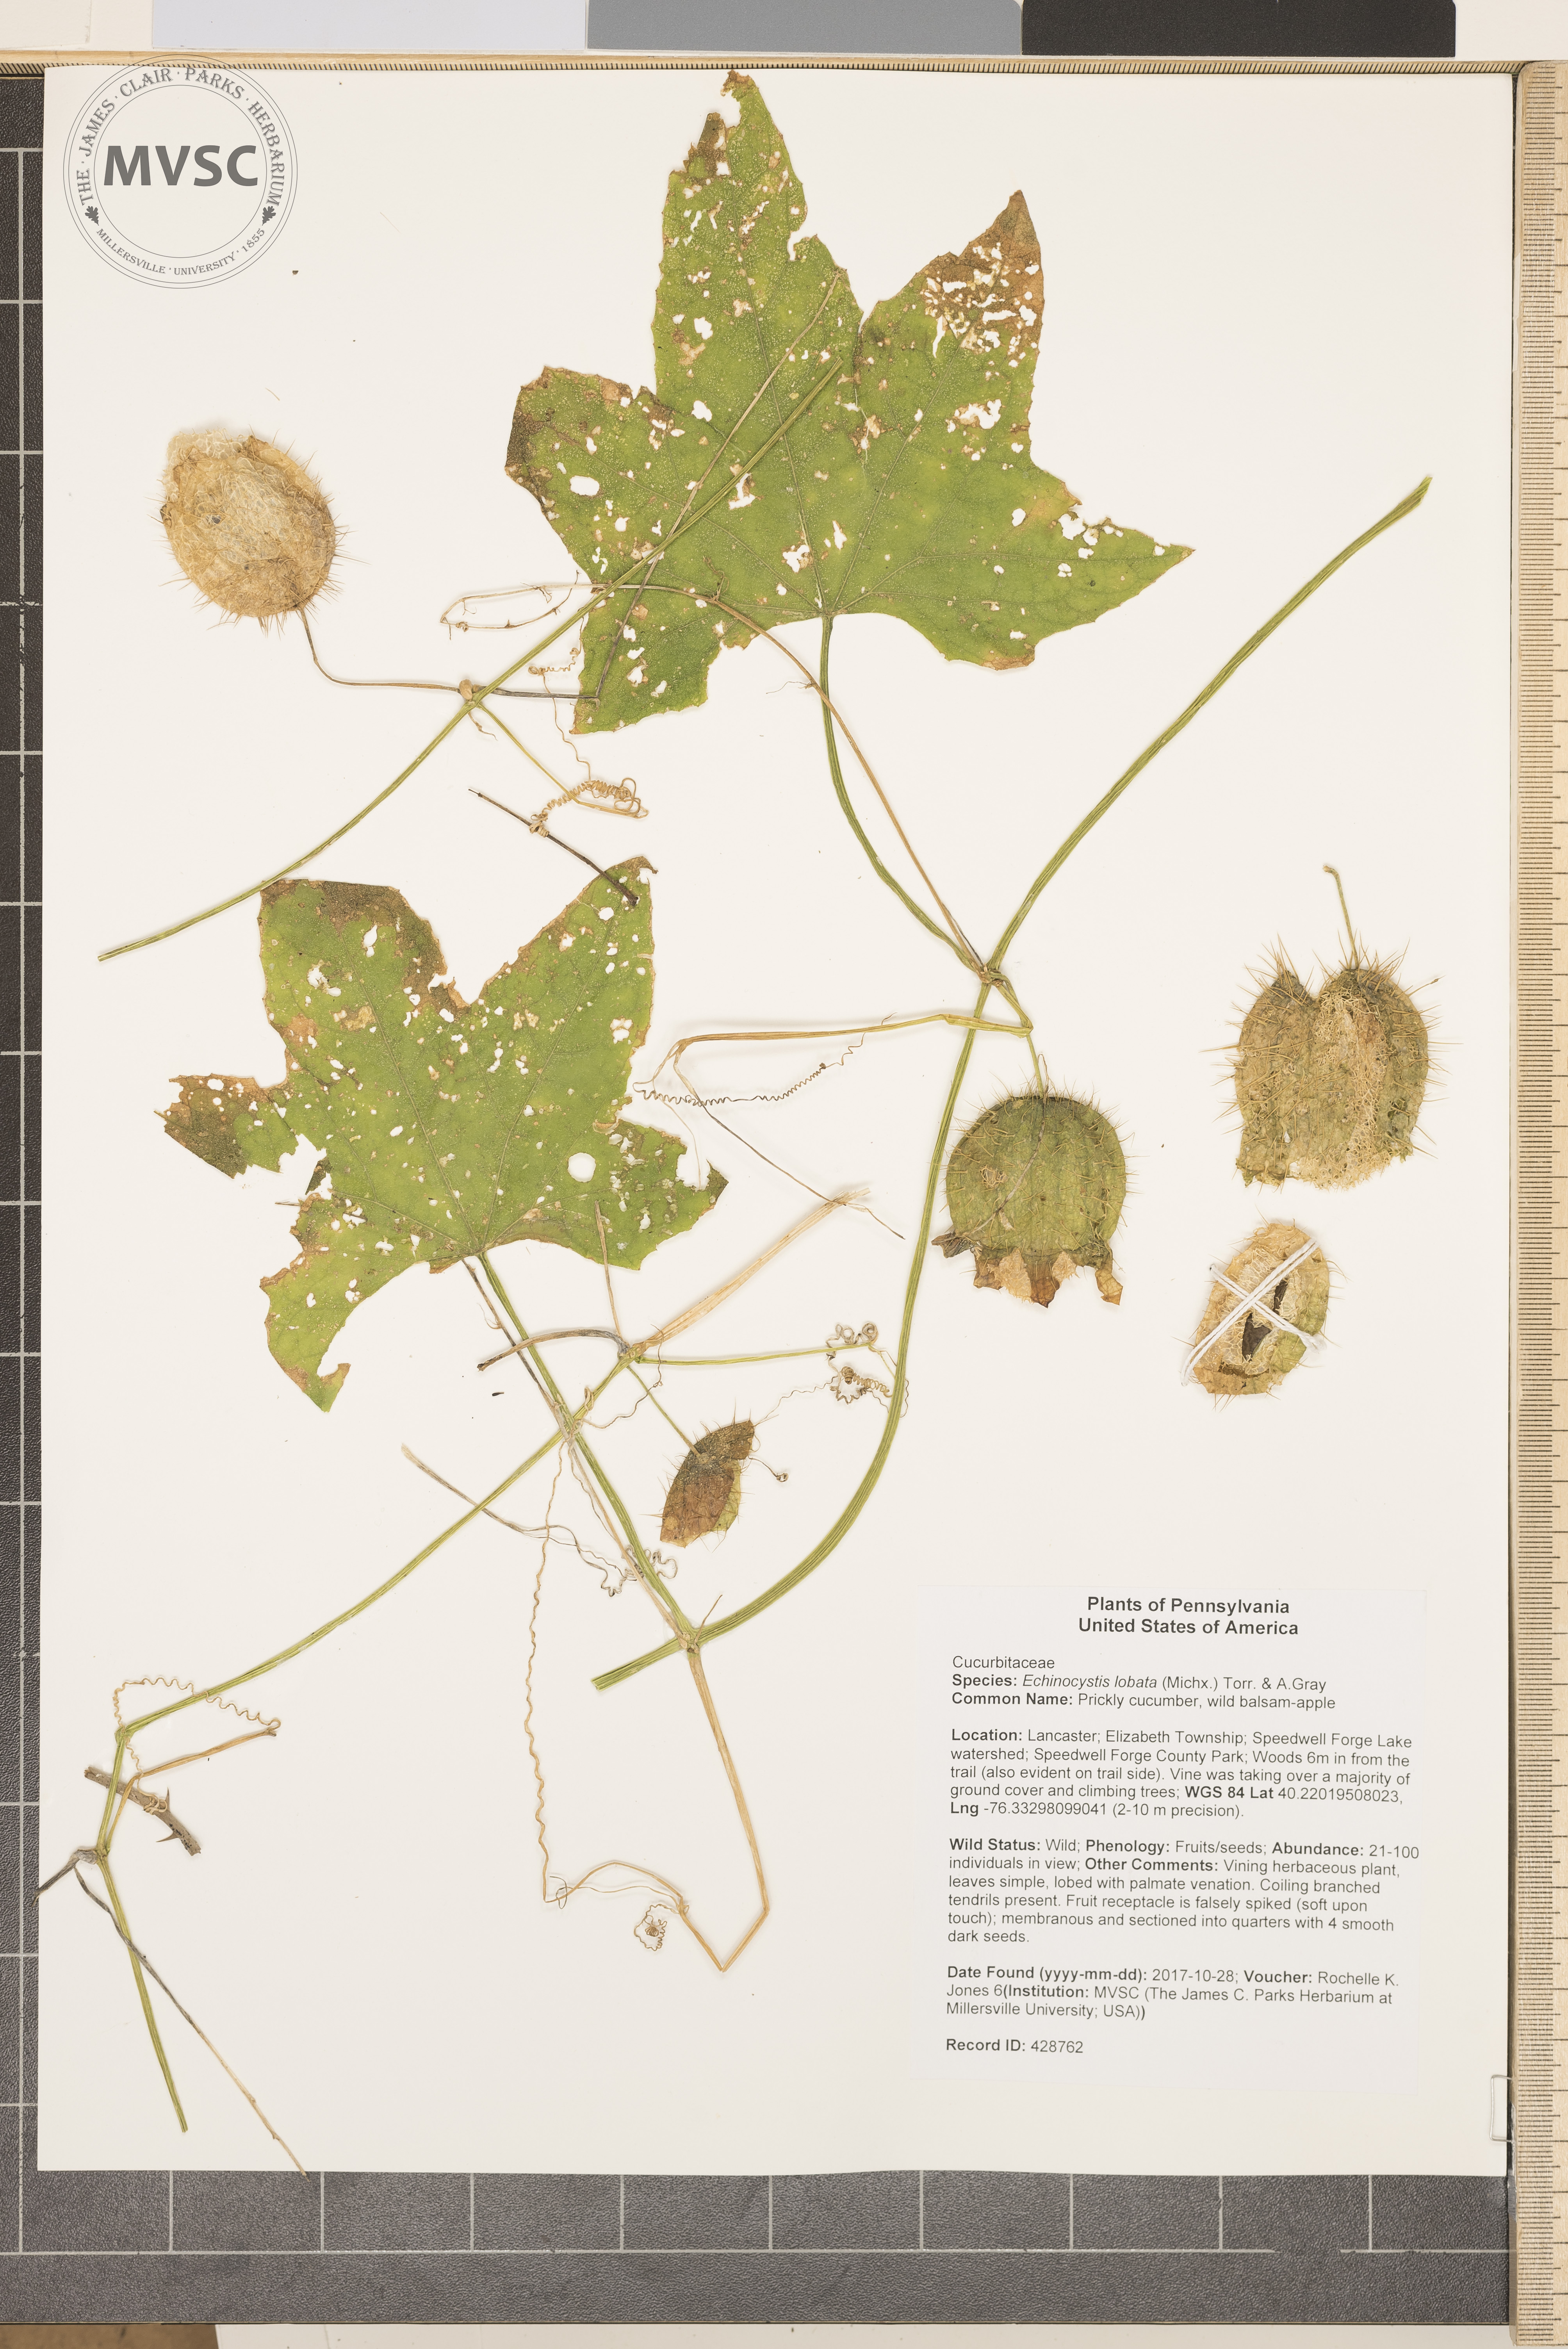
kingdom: Plantae
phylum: Tracheophyta
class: Magnoliopsida
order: Cucurbitales
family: Cucurbitaceae
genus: Echinocystis
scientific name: Echinocystis lobata
